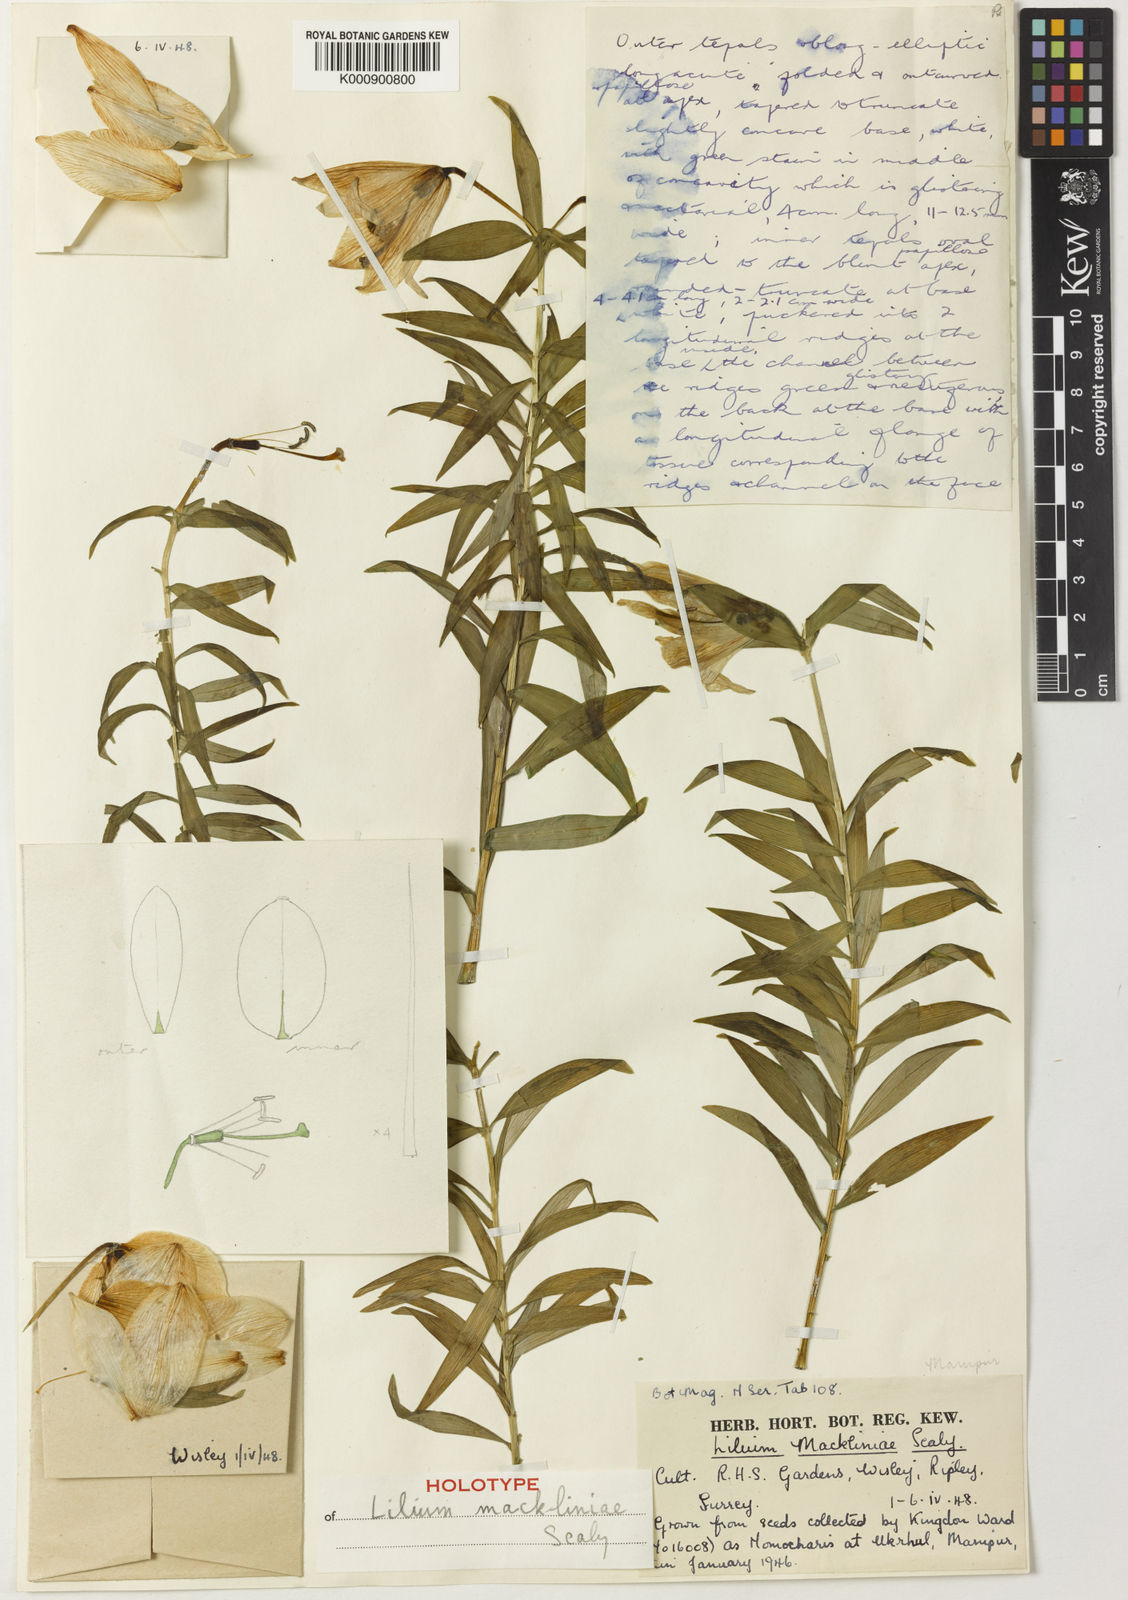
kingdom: Plantae
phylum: Tracheophyta
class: Liliopsida
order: Liliales
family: Liliaceae
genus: Lilium
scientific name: Lilium mackliniae
